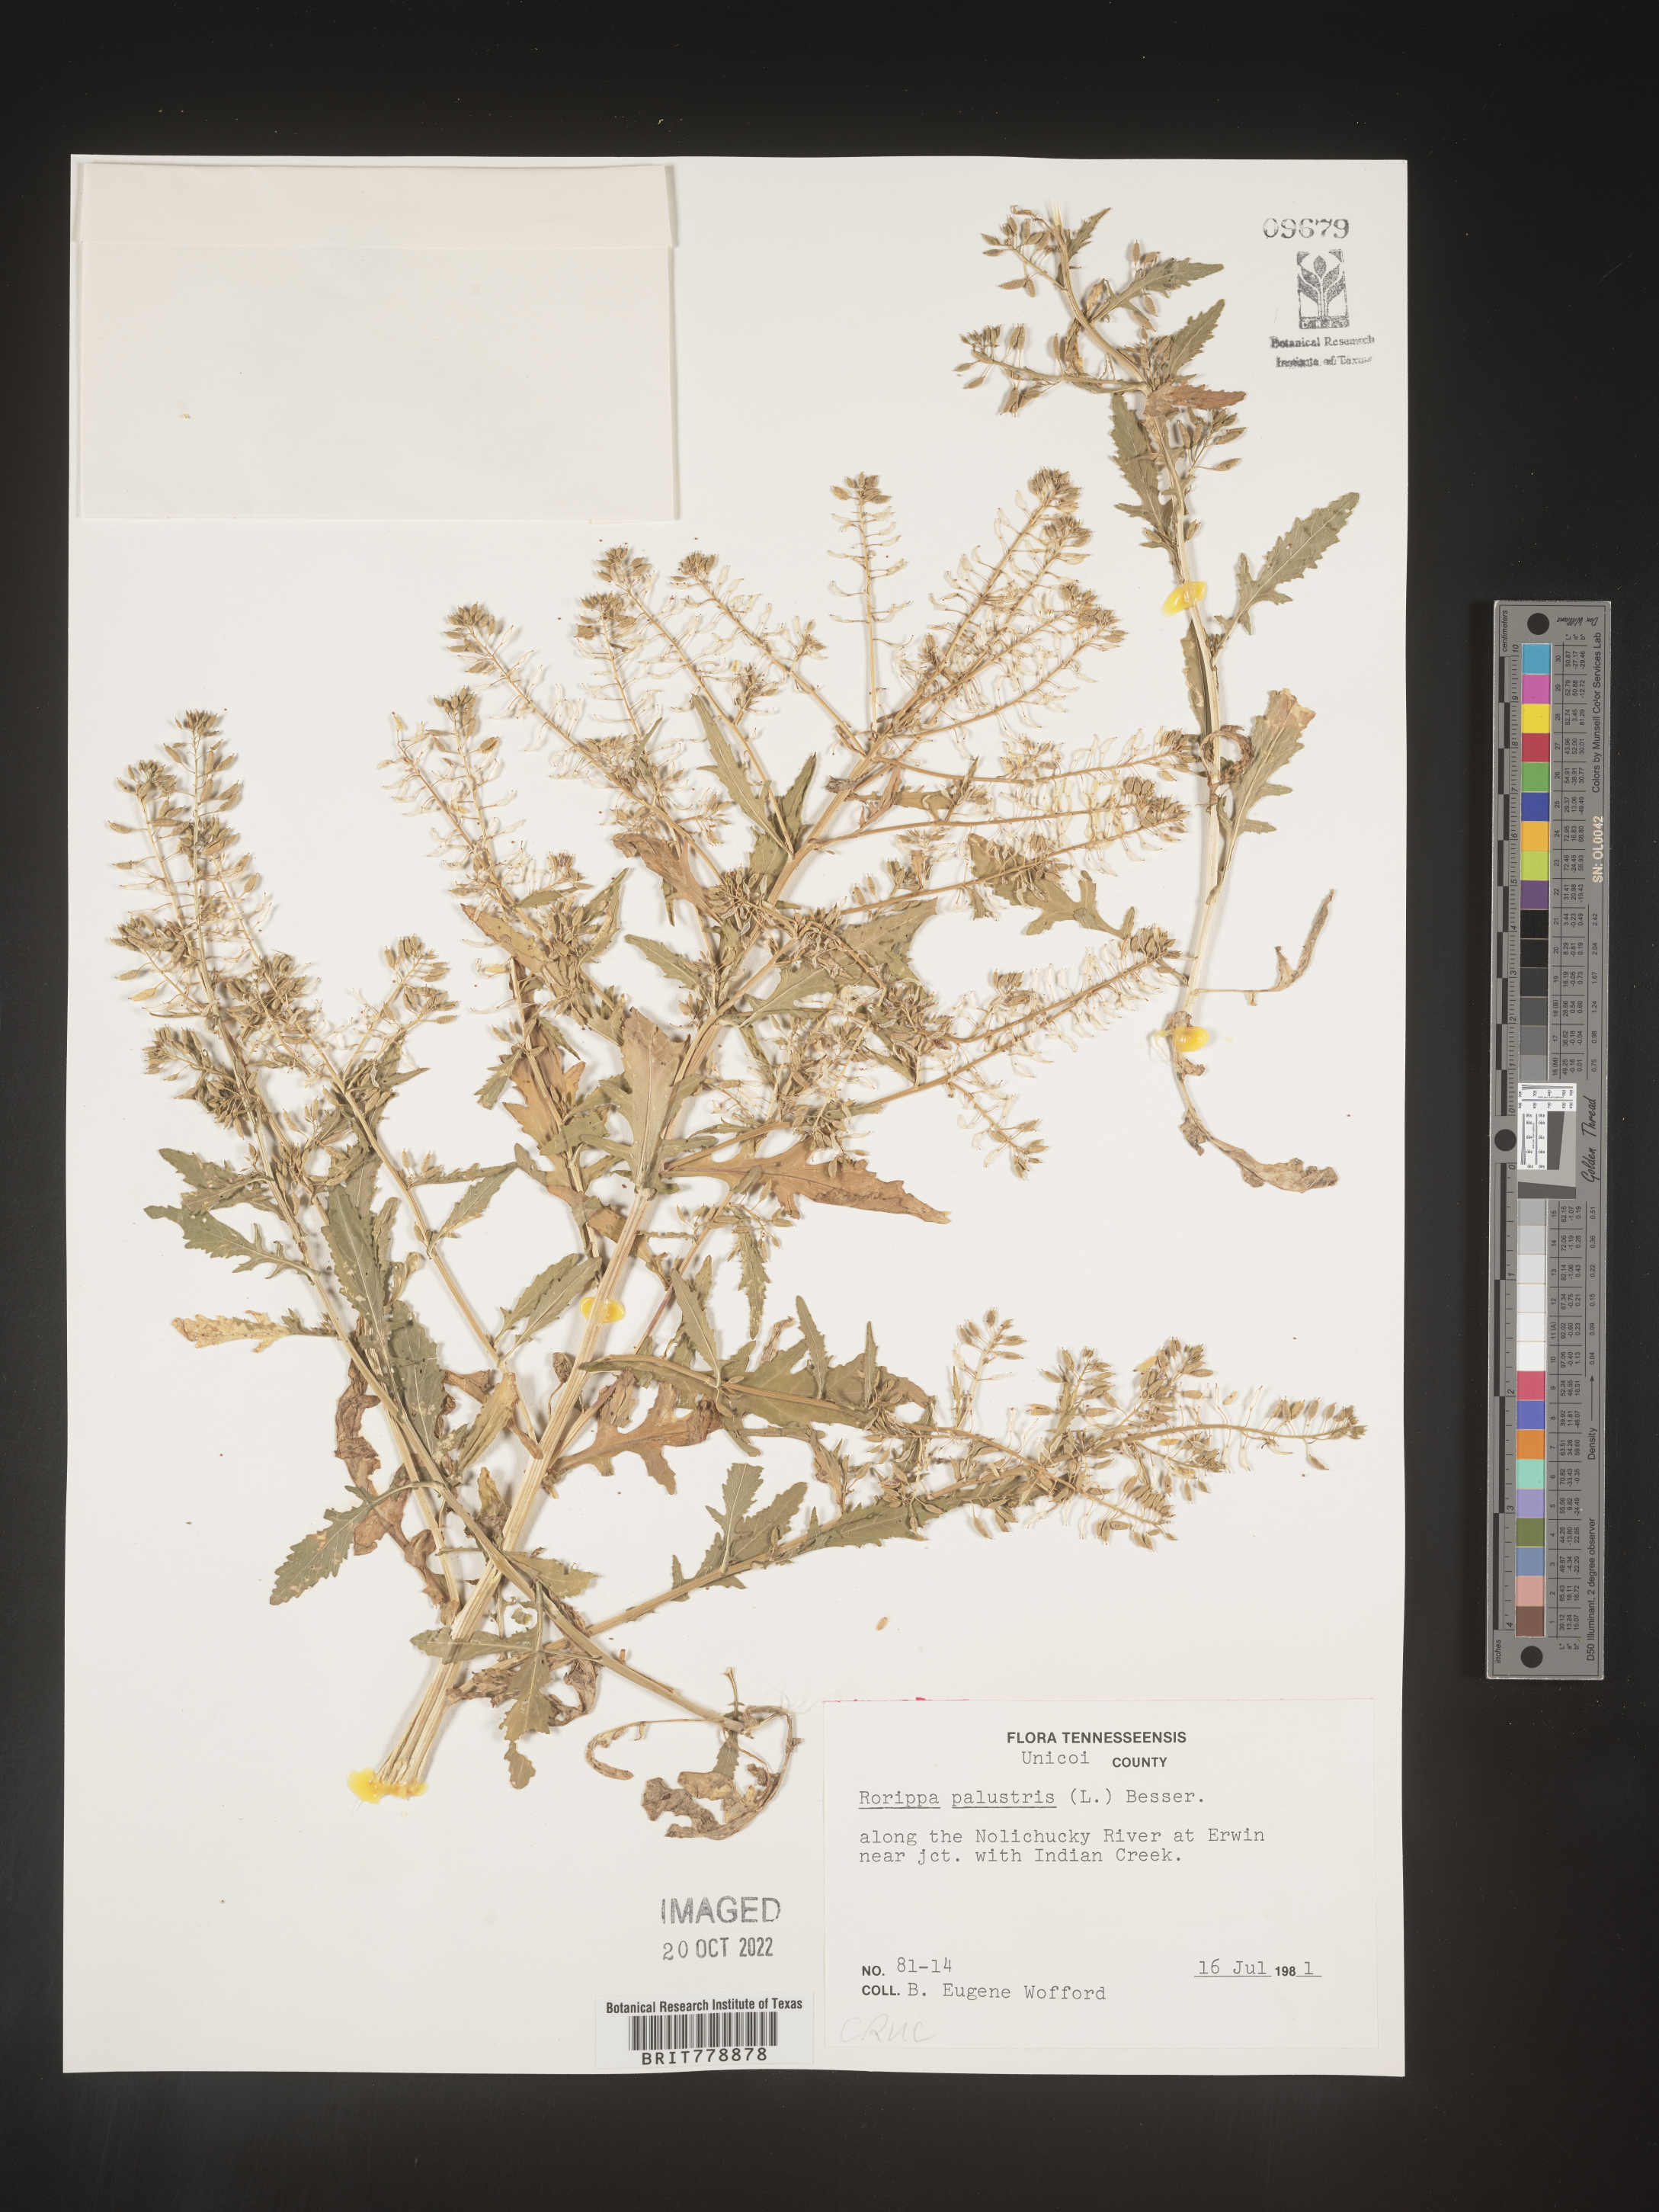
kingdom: Plantae
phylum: Tracheophyta
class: Magnoliopsida
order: Brassicales
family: Brassicaceae
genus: Rorippa
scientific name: Rorippa palustris
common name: Marsh yellow-cress
